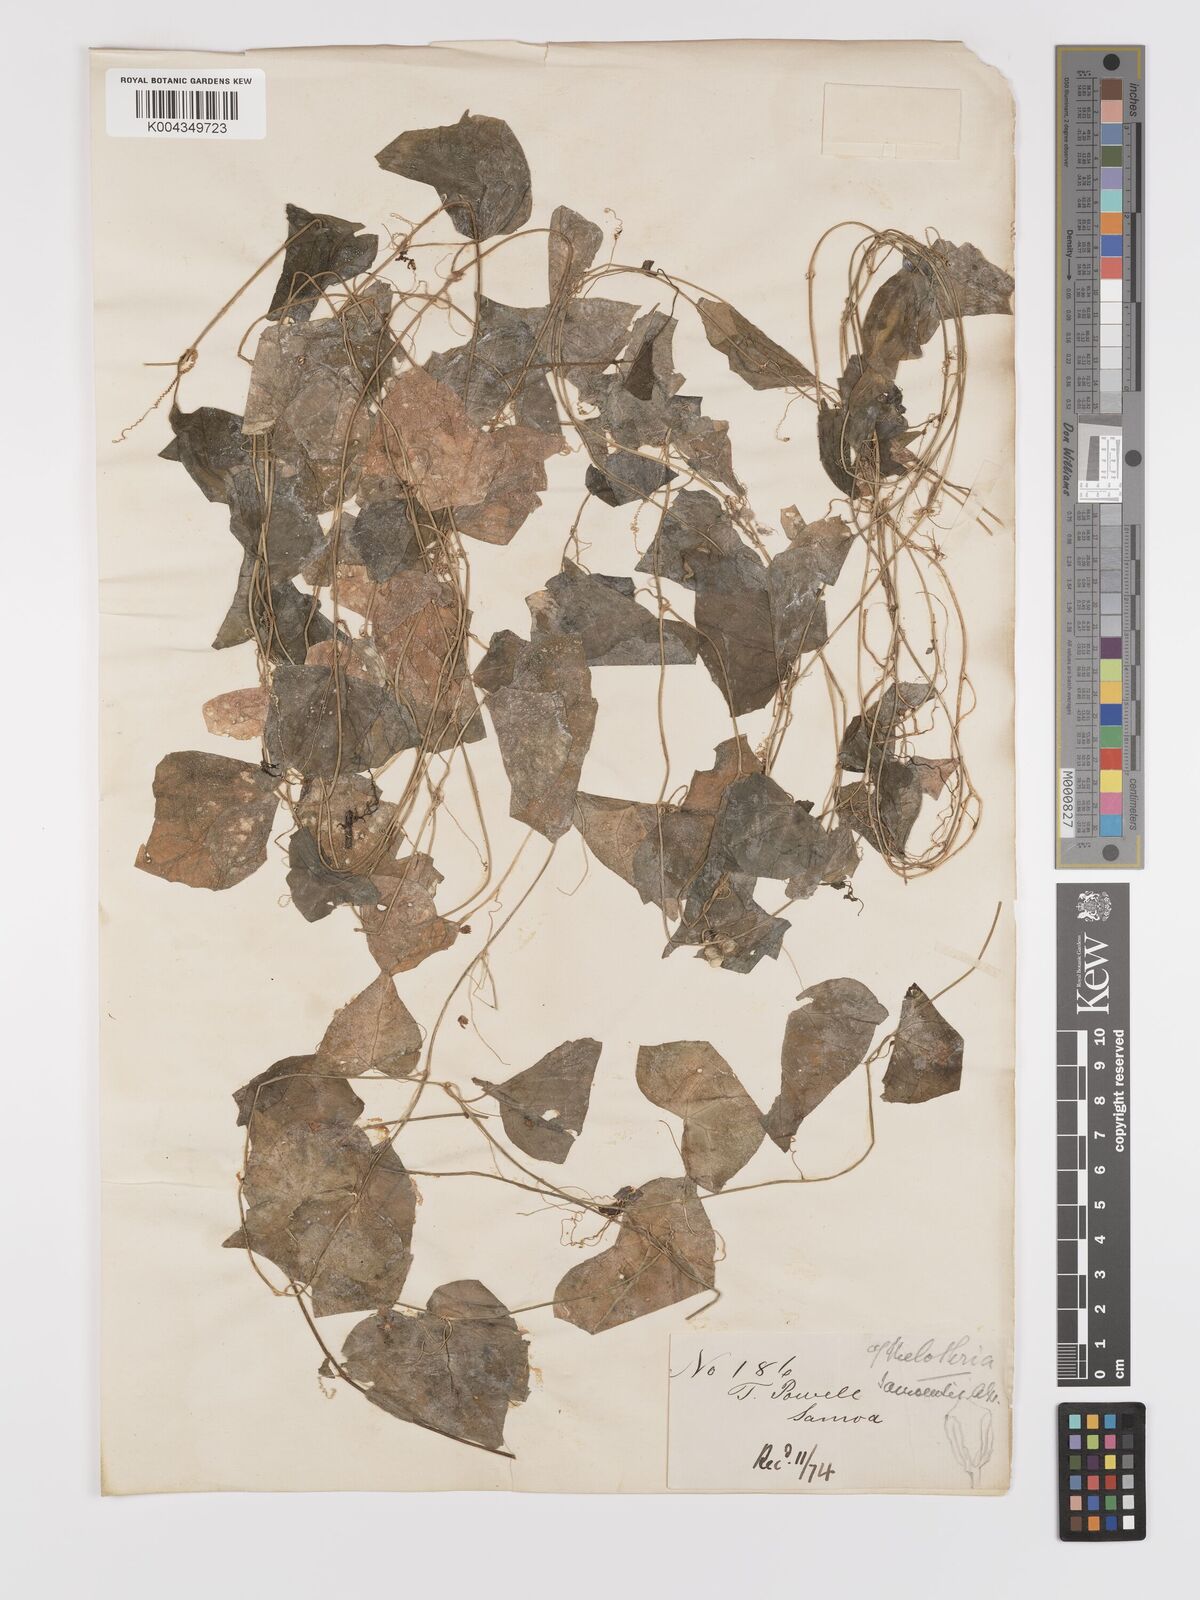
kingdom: Plantae
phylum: Tracheophyta
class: Magnoliopsida
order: Cucurbitales
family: Cucurbitaceae
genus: Zehneria
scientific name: Zehneria mucronata
